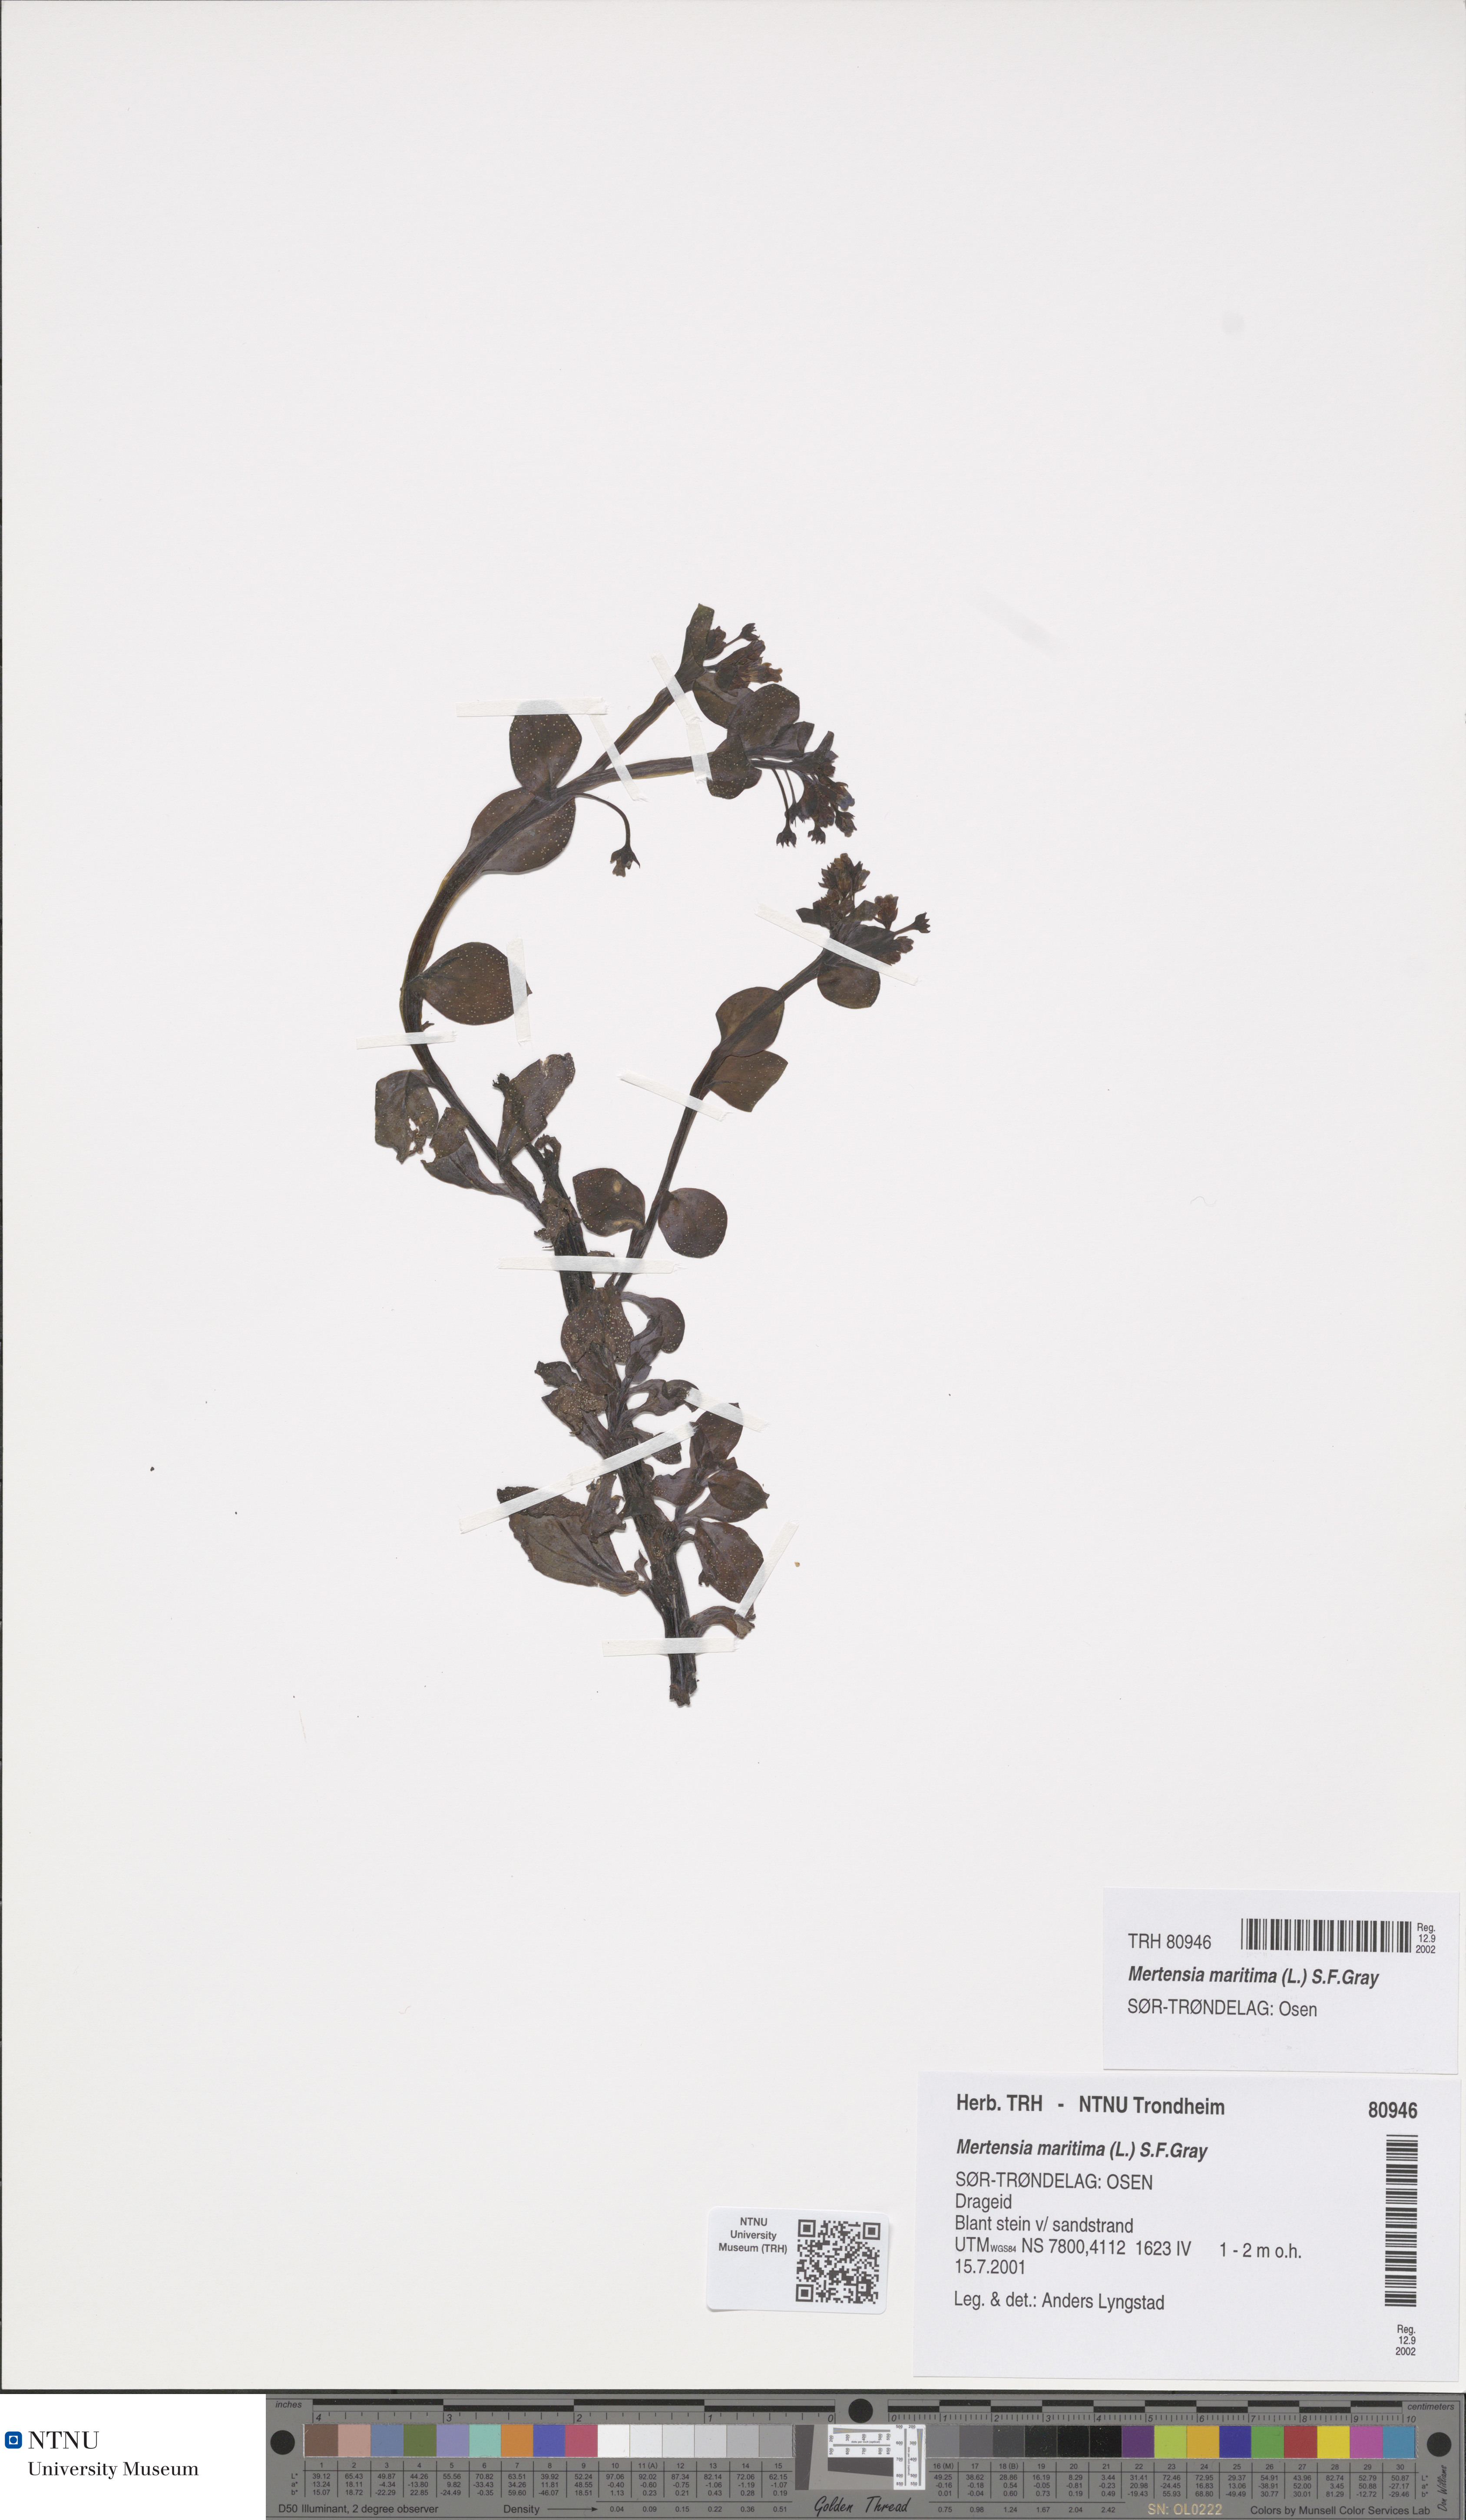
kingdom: Plantae
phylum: Tracheophyta
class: Magnoliopsida
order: Boraginales
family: Boraginaceae
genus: Mertensia
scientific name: Mertensia maritima
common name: Oysterplant
